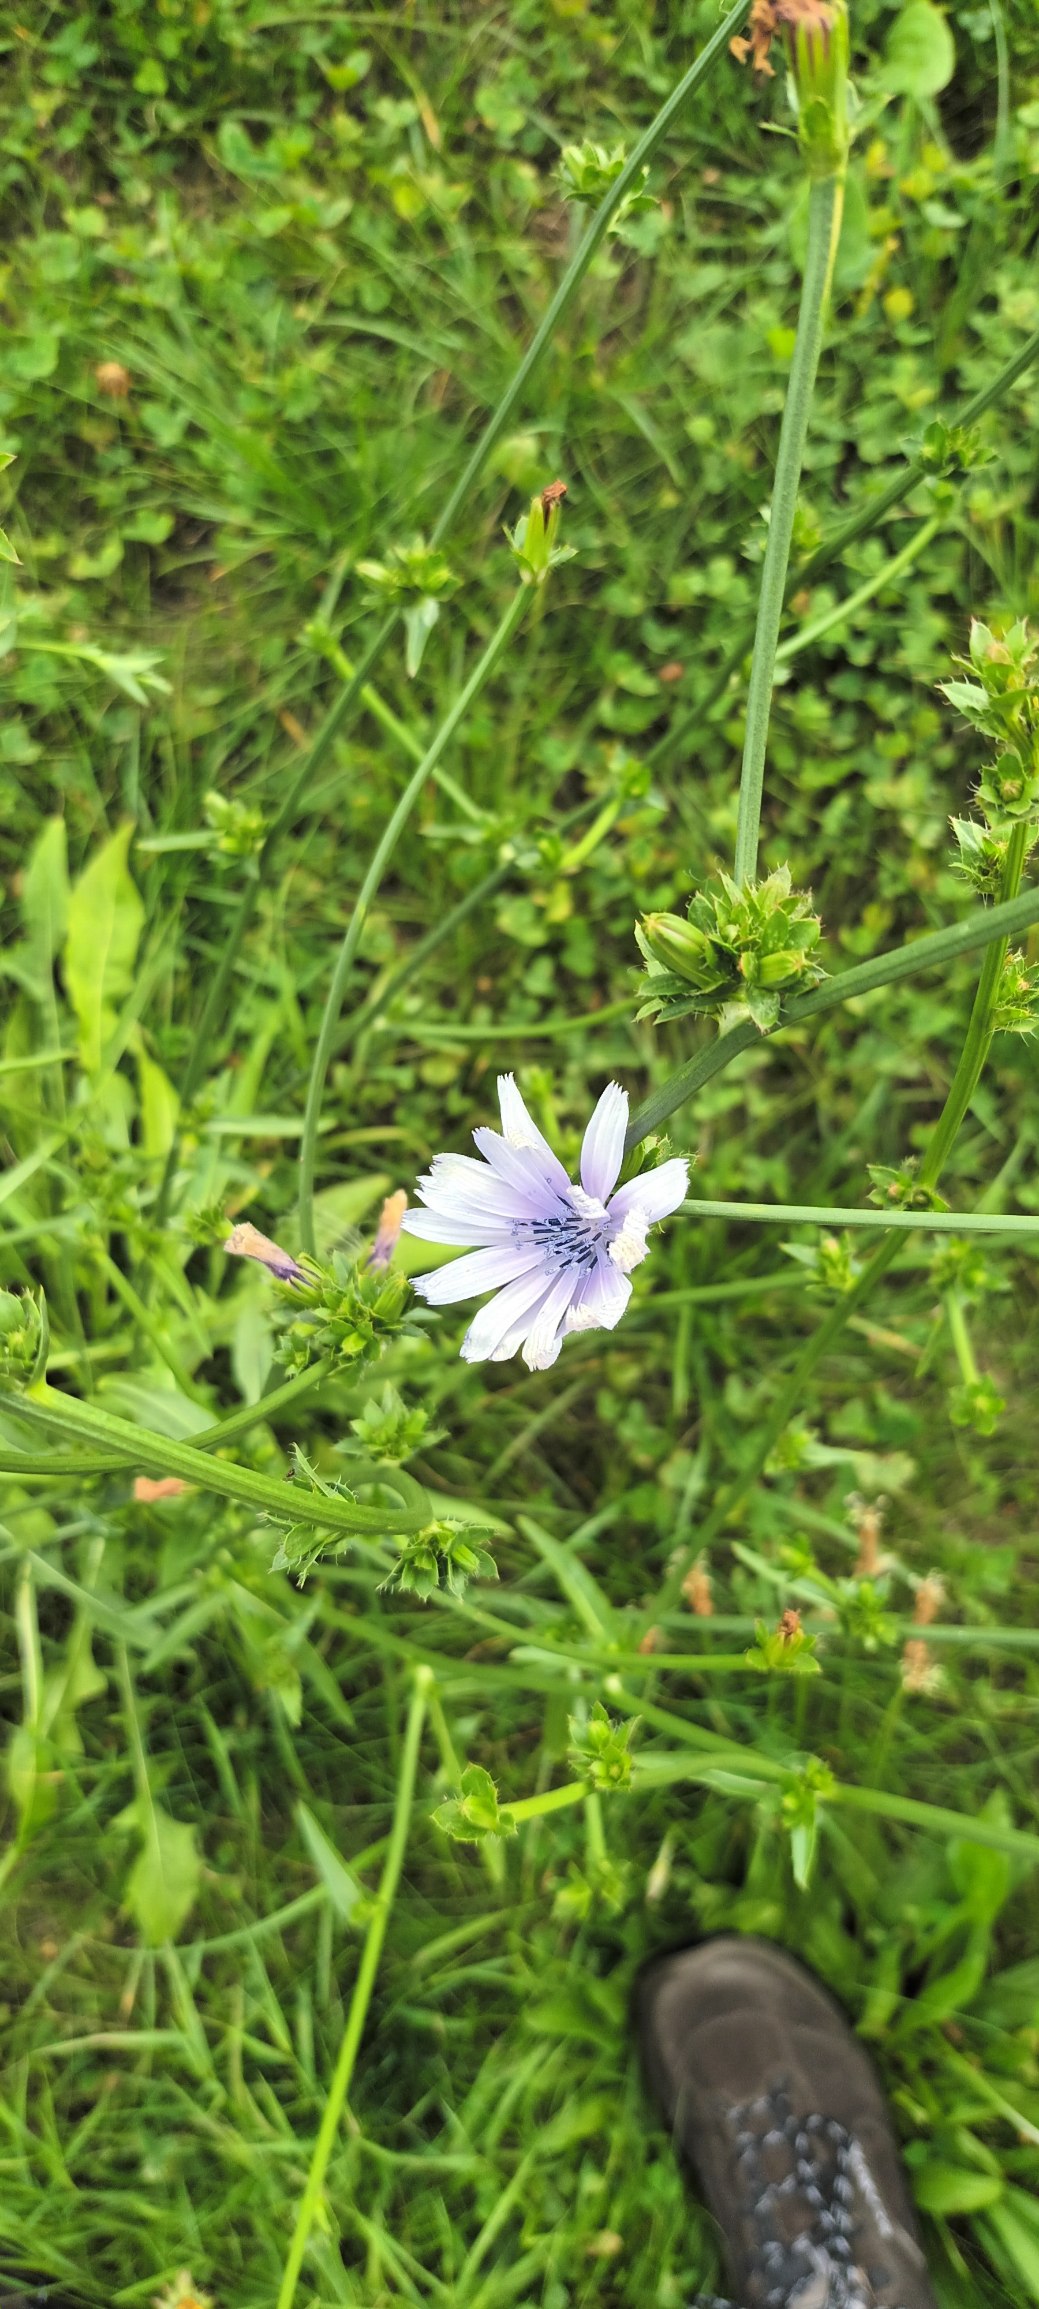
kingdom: Plantae
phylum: Tracheophyta
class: Magnoliopsida
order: Asterales
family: Asteraceae
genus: Cichorium
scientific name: Cichorium intybus
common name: Cikorie
